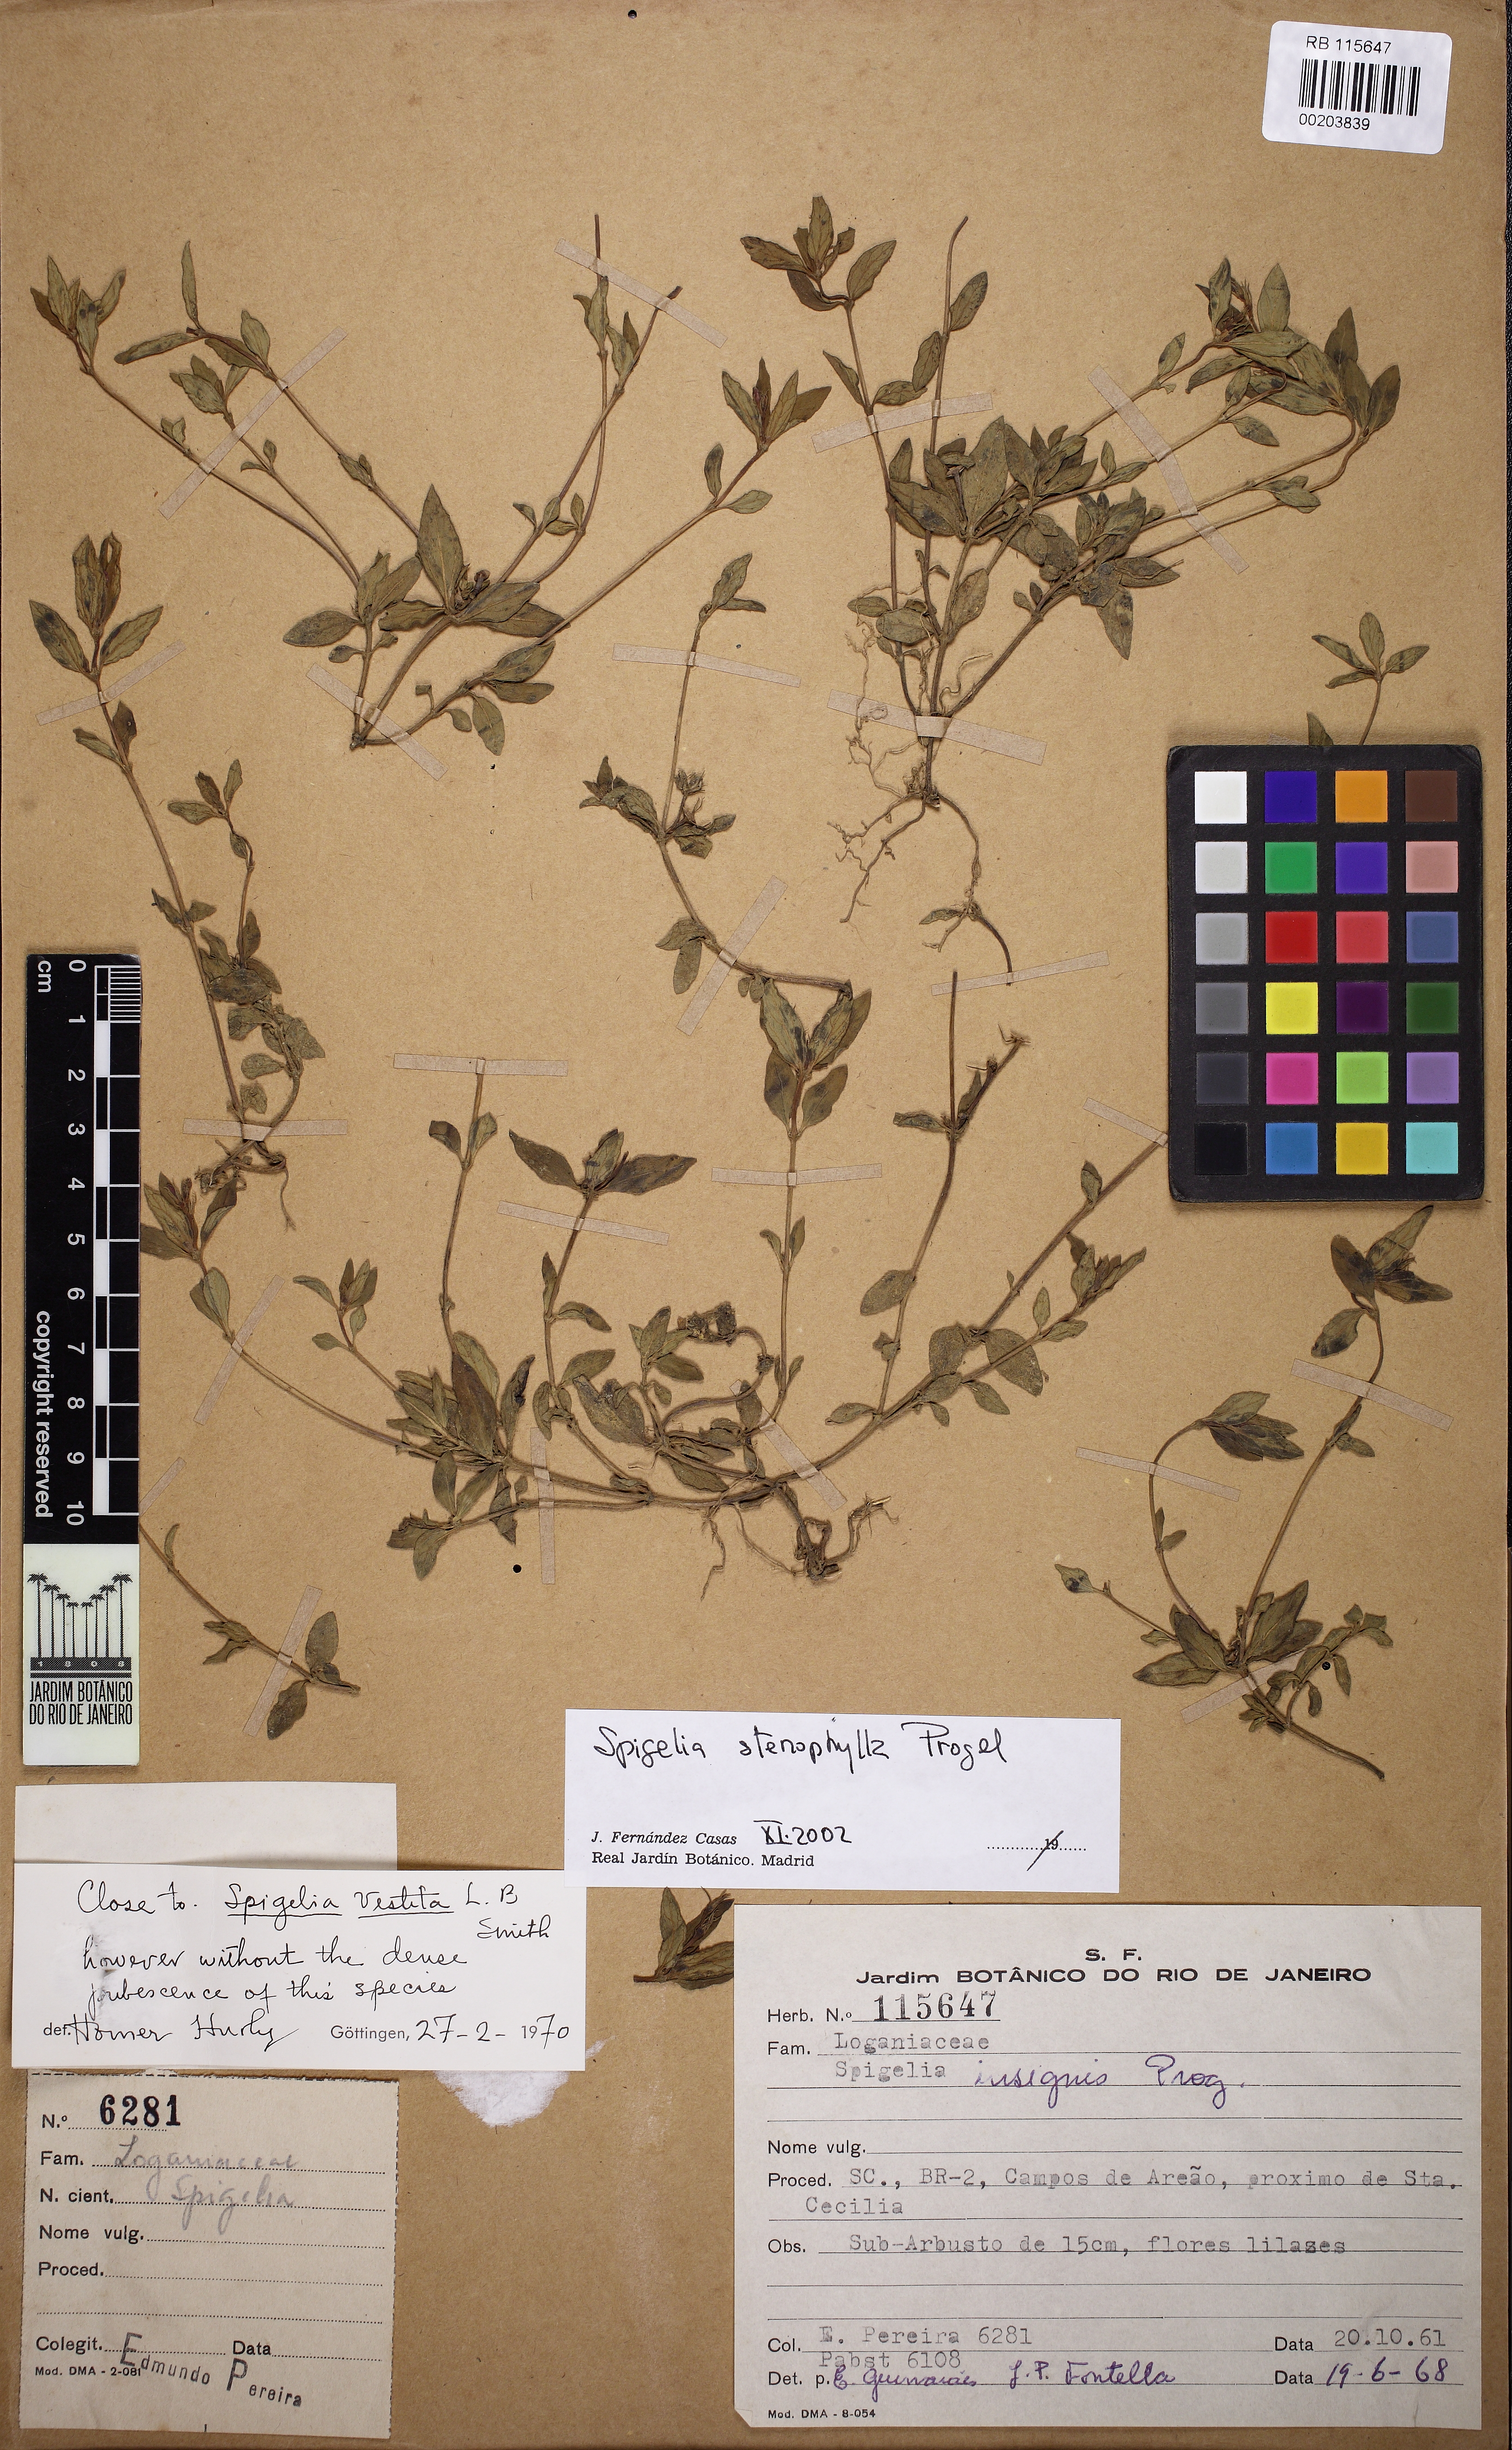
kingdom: Plantae
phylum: Tracheophyta
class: Magnoliopsida
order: Gentianales
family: Loganiaceae
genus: Spigelia
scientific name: Spigelia stenophylla
